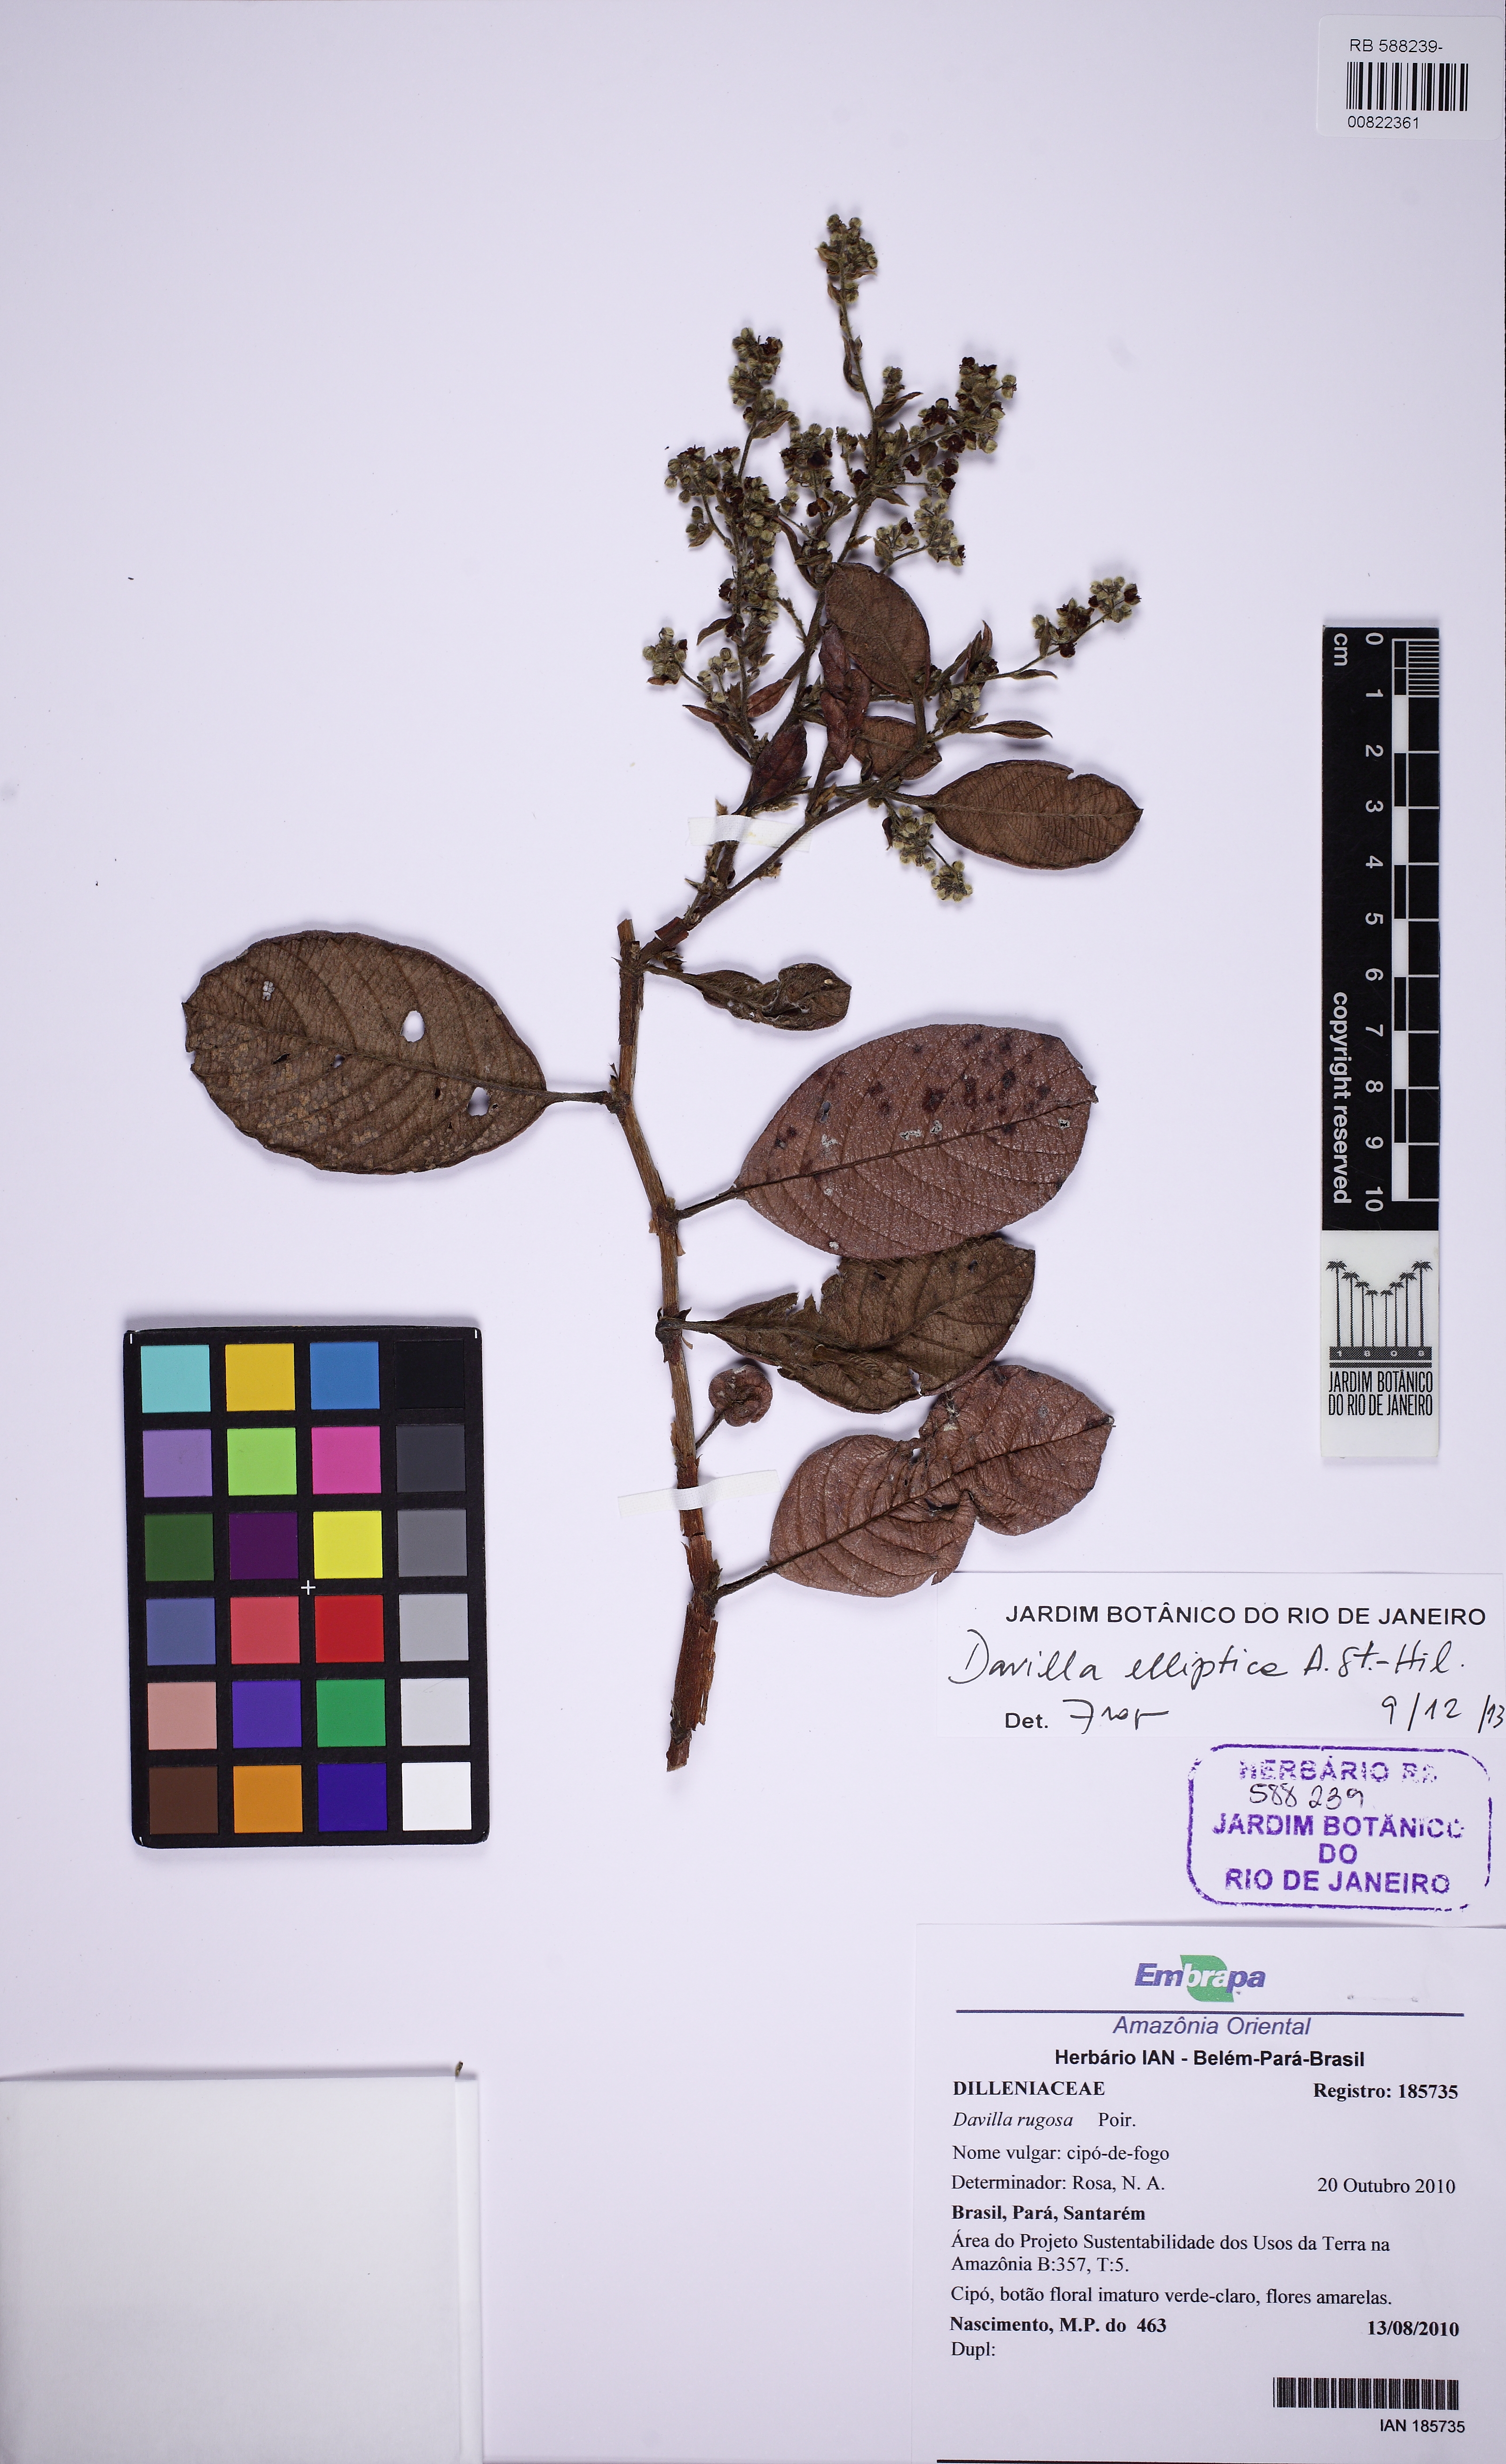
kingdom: Plantae
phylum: Tracheophyta
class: Magnoliopsida
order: Dilleniales
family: Dilleniaceae
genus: Davilla
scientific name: Davilla elliptica
